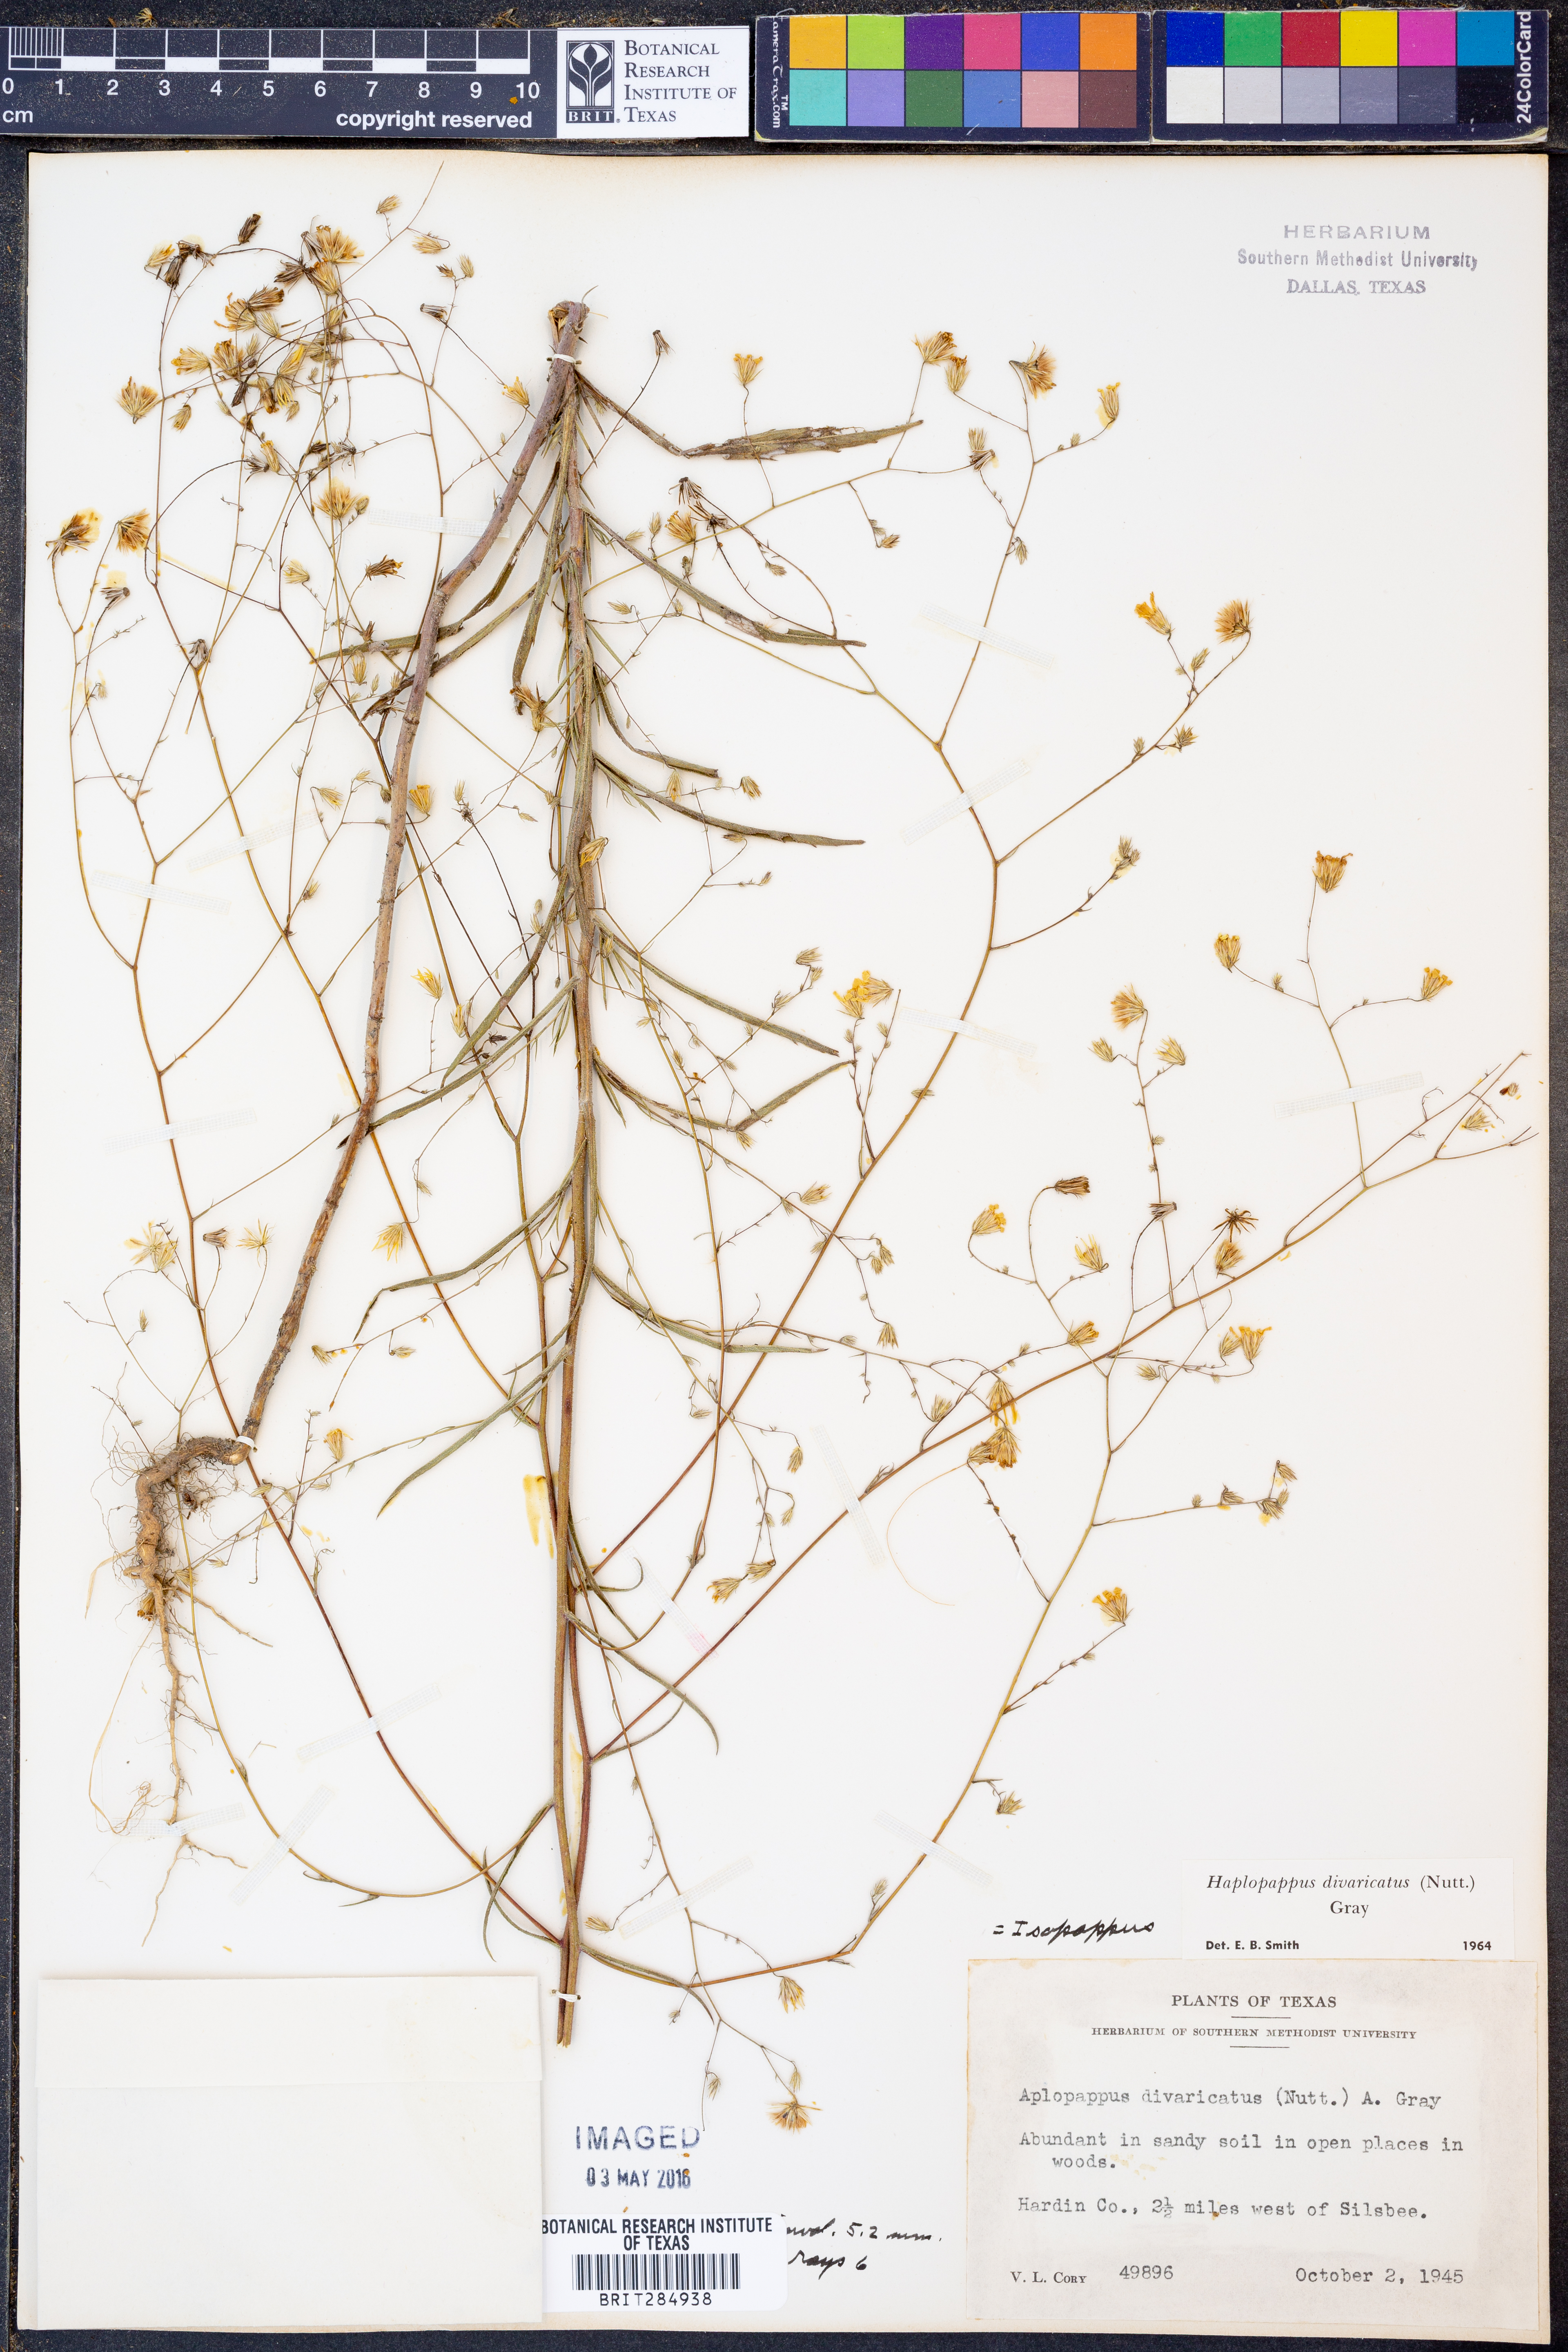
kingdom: Plantae
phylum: Tracheophyta
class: Magnoliopsida
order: Asterales
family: Asteraceae
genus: Croptilon
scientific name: Croptilon divaricatum
